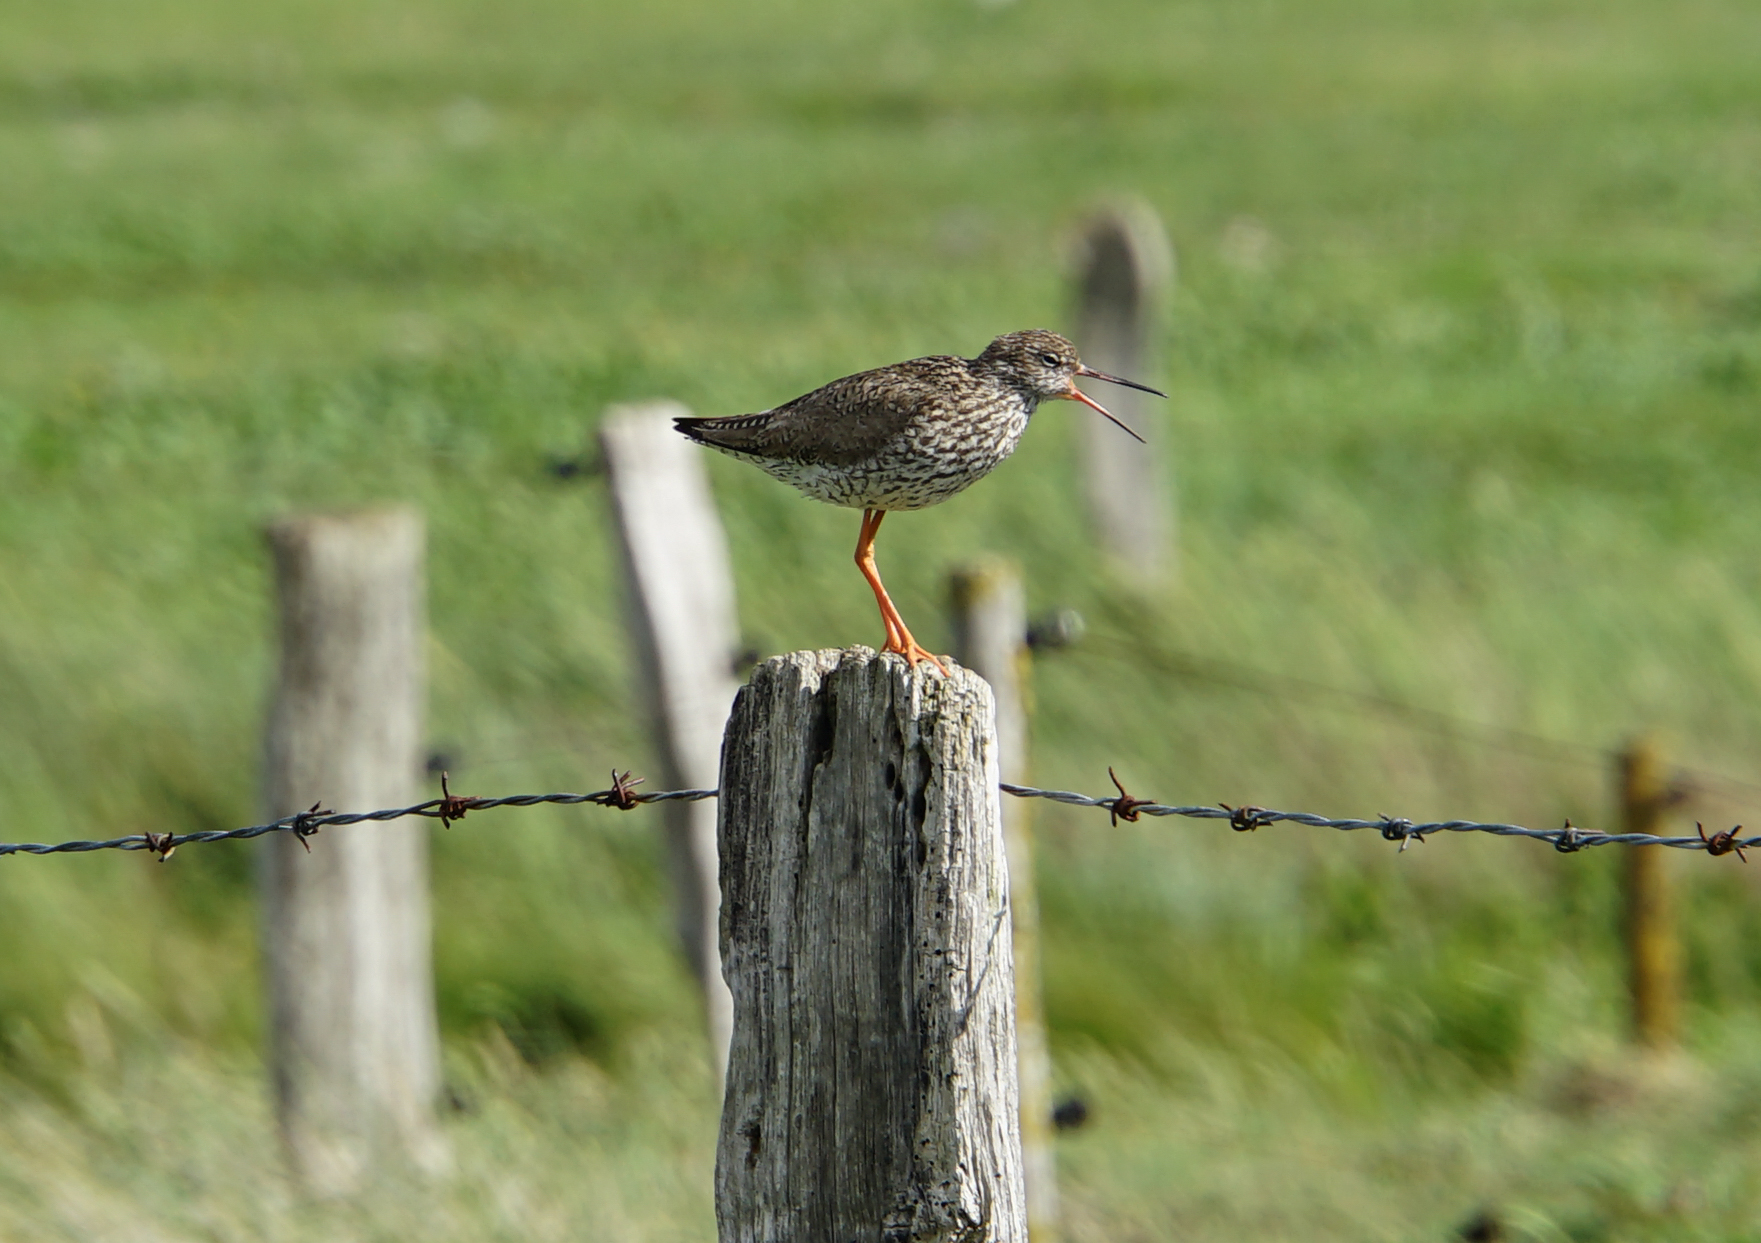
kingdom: Animalia
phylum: Chordata
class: Aves
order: Charadriiformes
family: Scolopacidae
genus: Tringa
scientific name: Tringa totanus
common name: Common redshank
